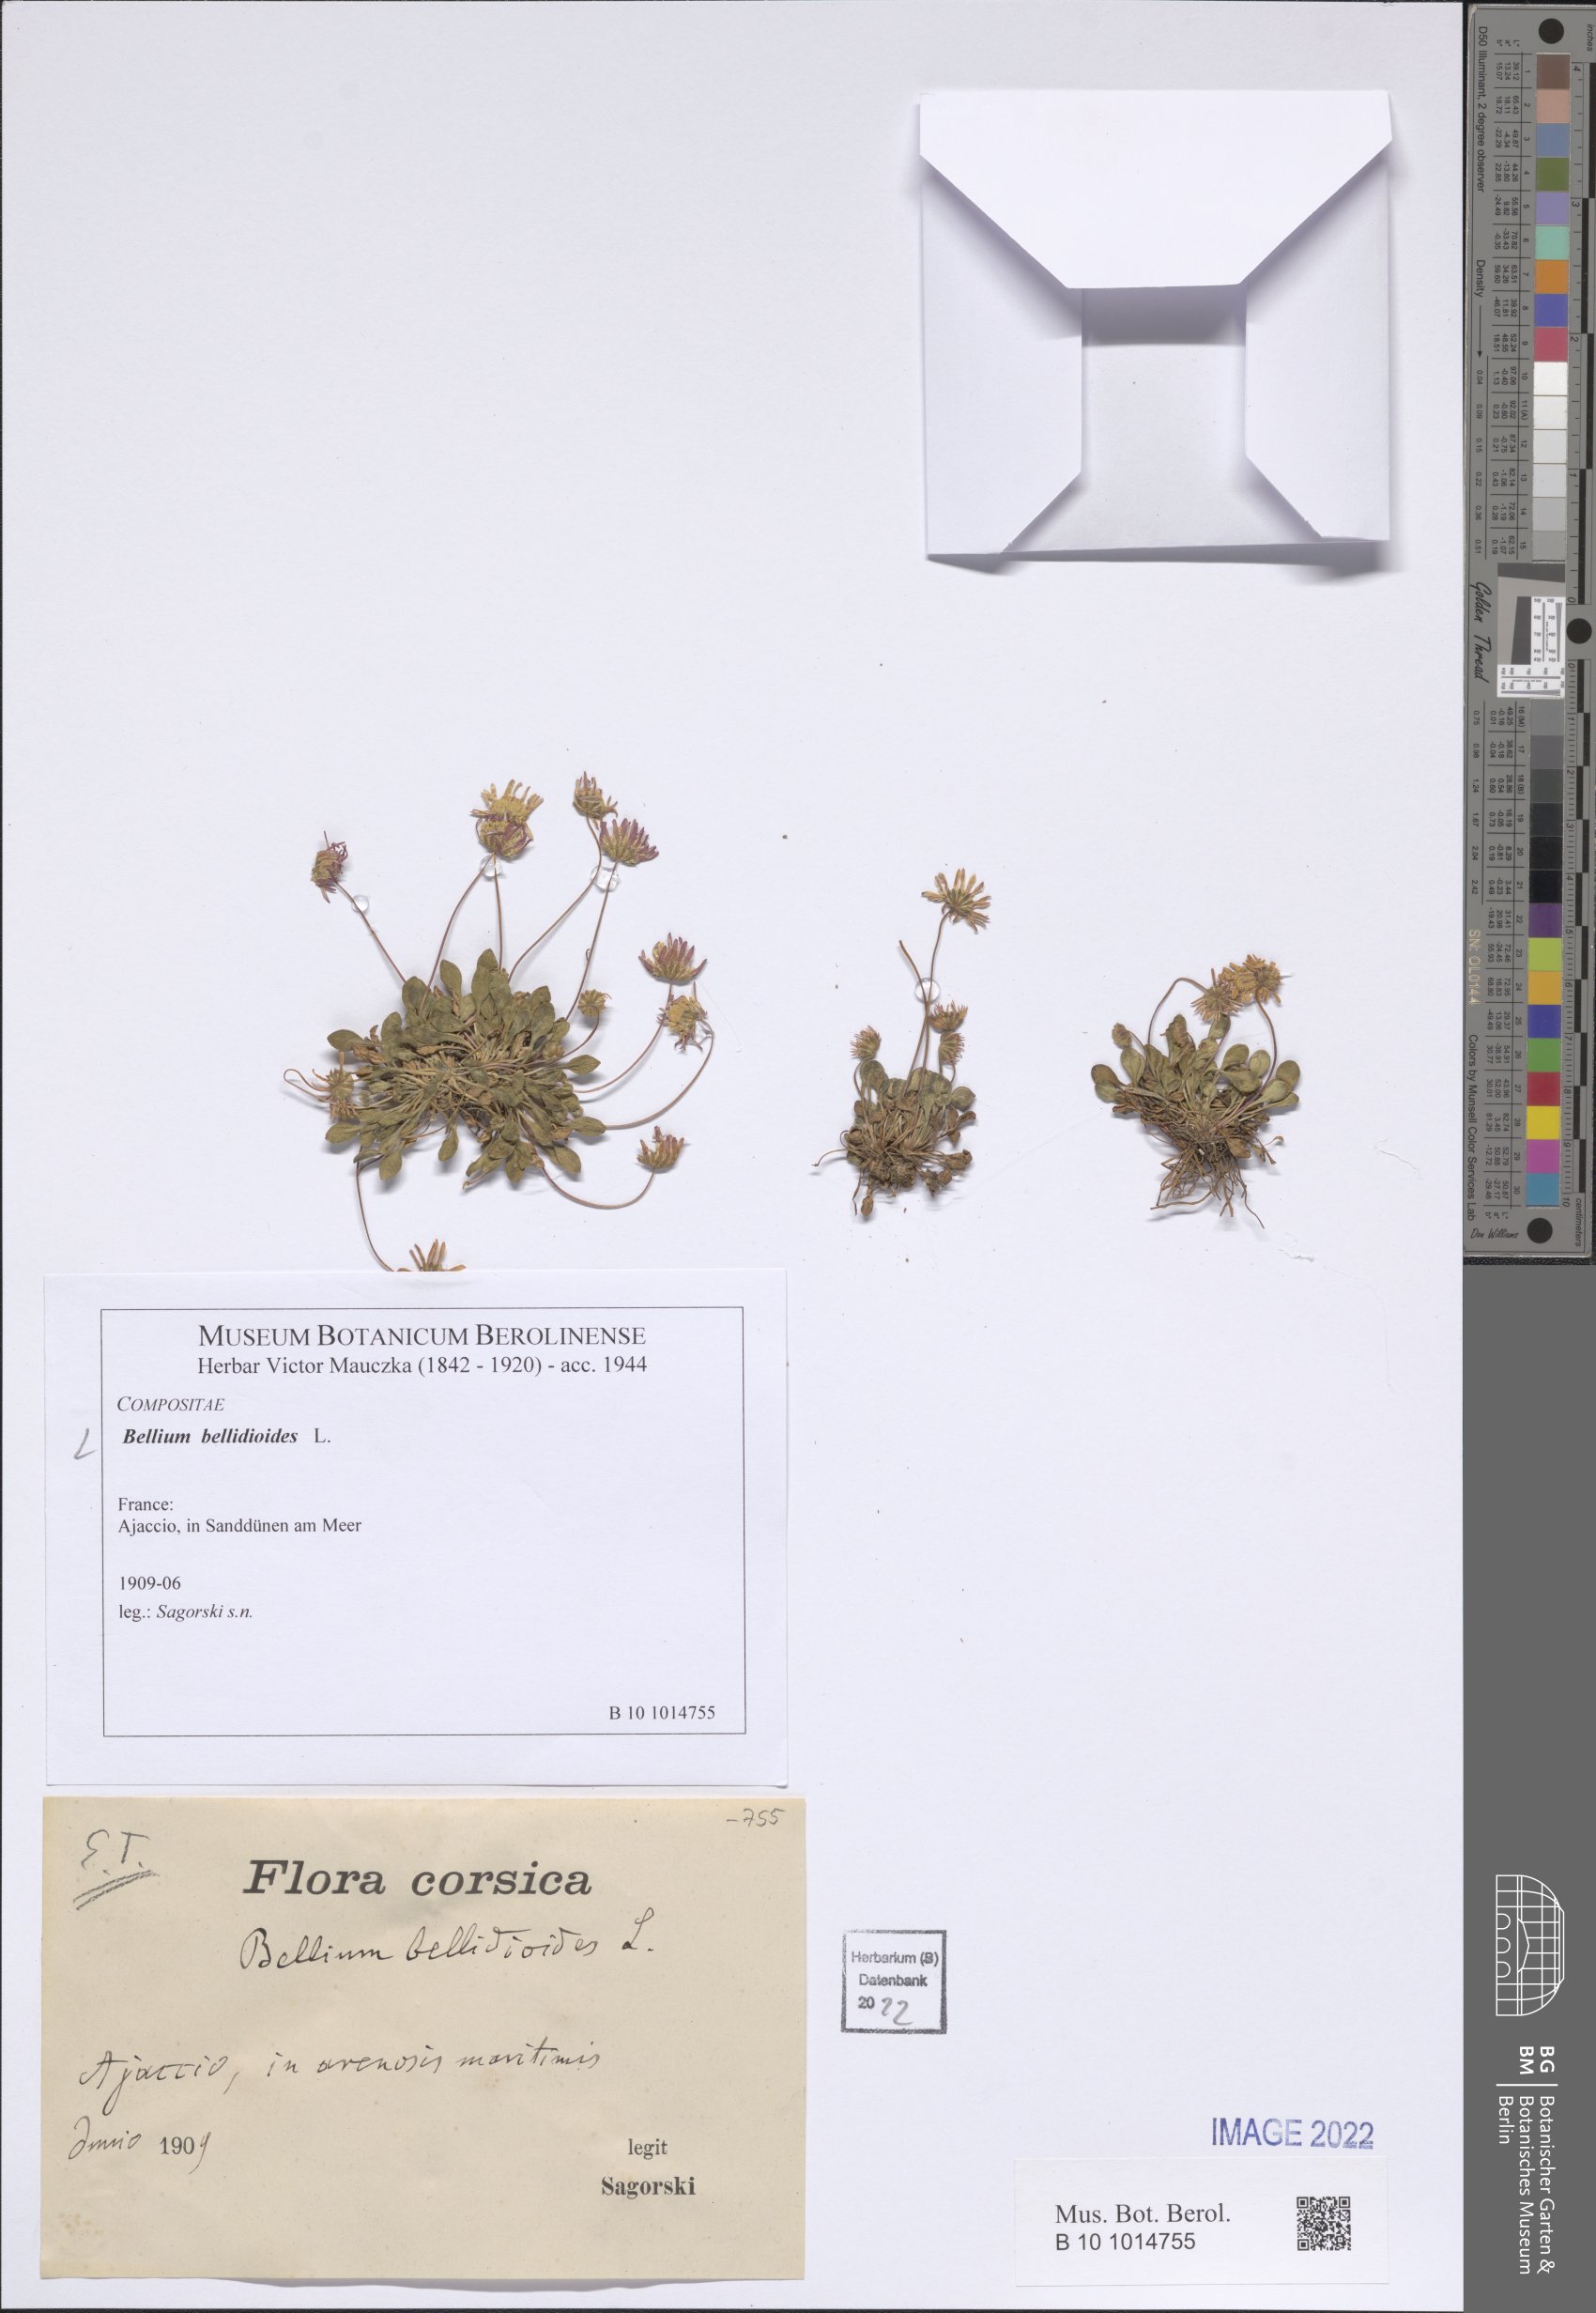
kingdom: Plantae
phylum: Tracheophyta
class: Magnoliopsida
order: Asterales
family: Asteraceae
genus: Bellium
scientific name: Bellium bellidioides
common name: False daisy
